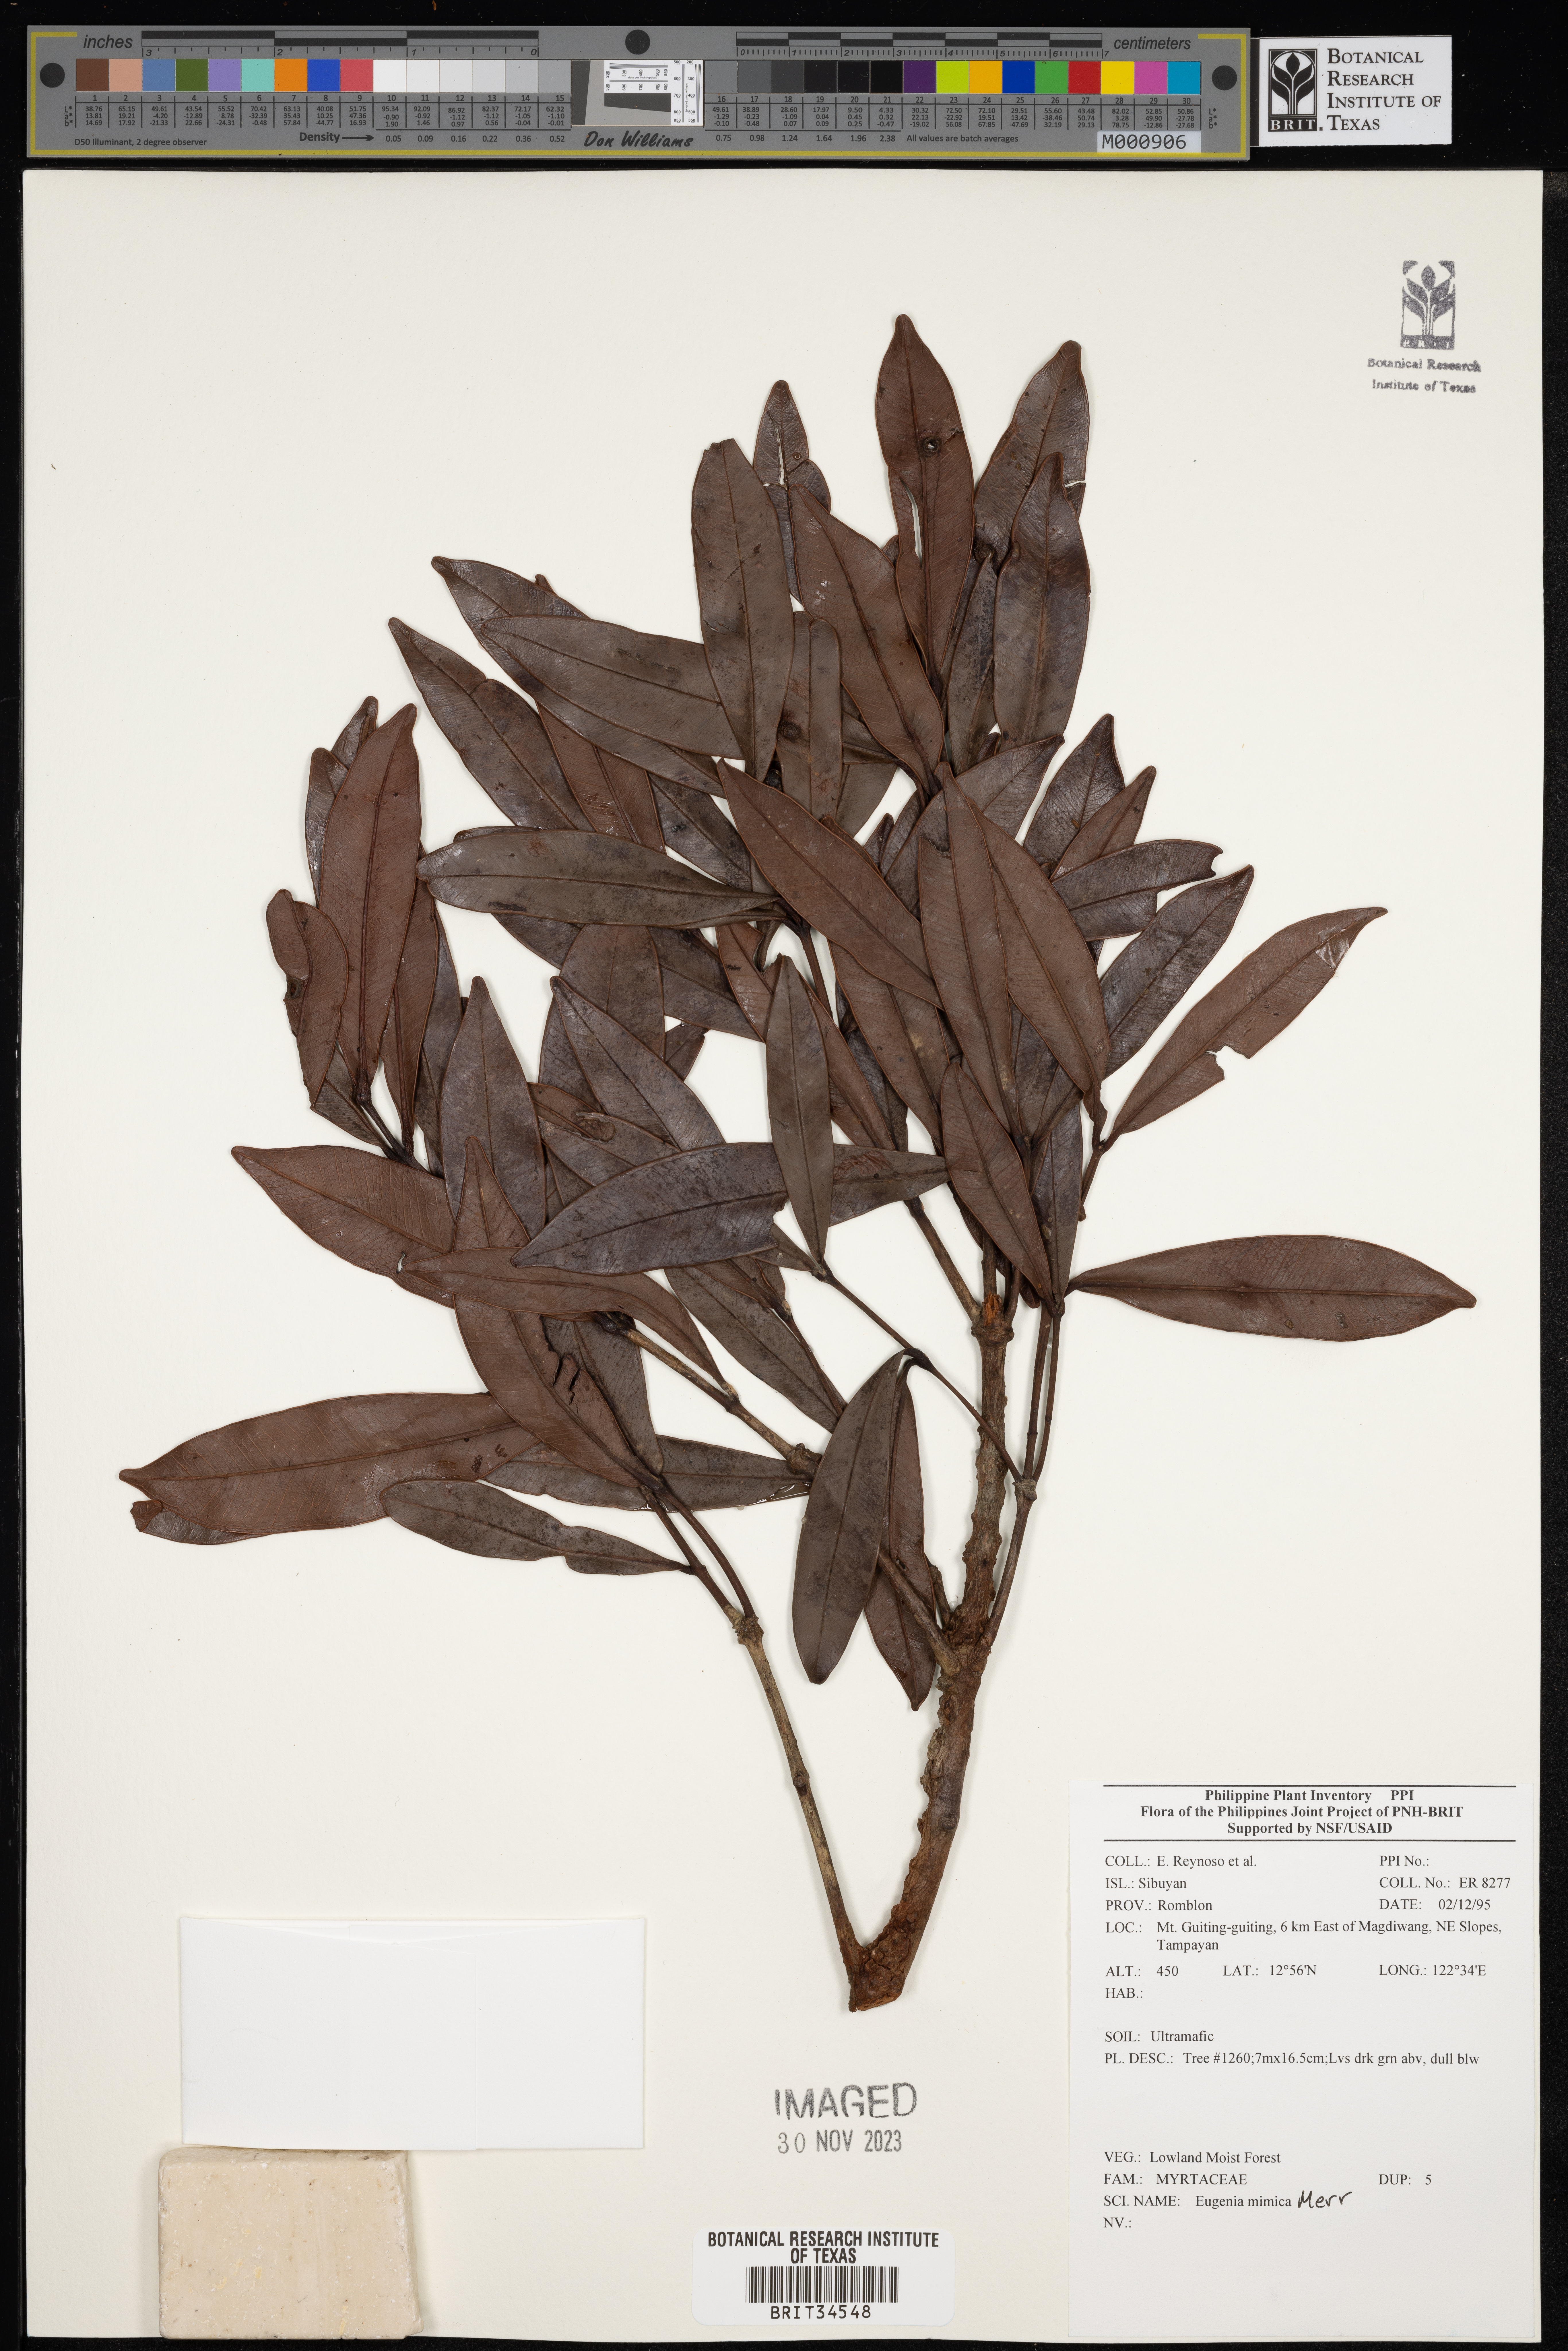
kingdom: Plantae
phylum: Tracheophyta
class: Magnoliopsida
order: Myrtales
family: Myrtaceae
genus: Eugenia
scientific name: Eugenia
